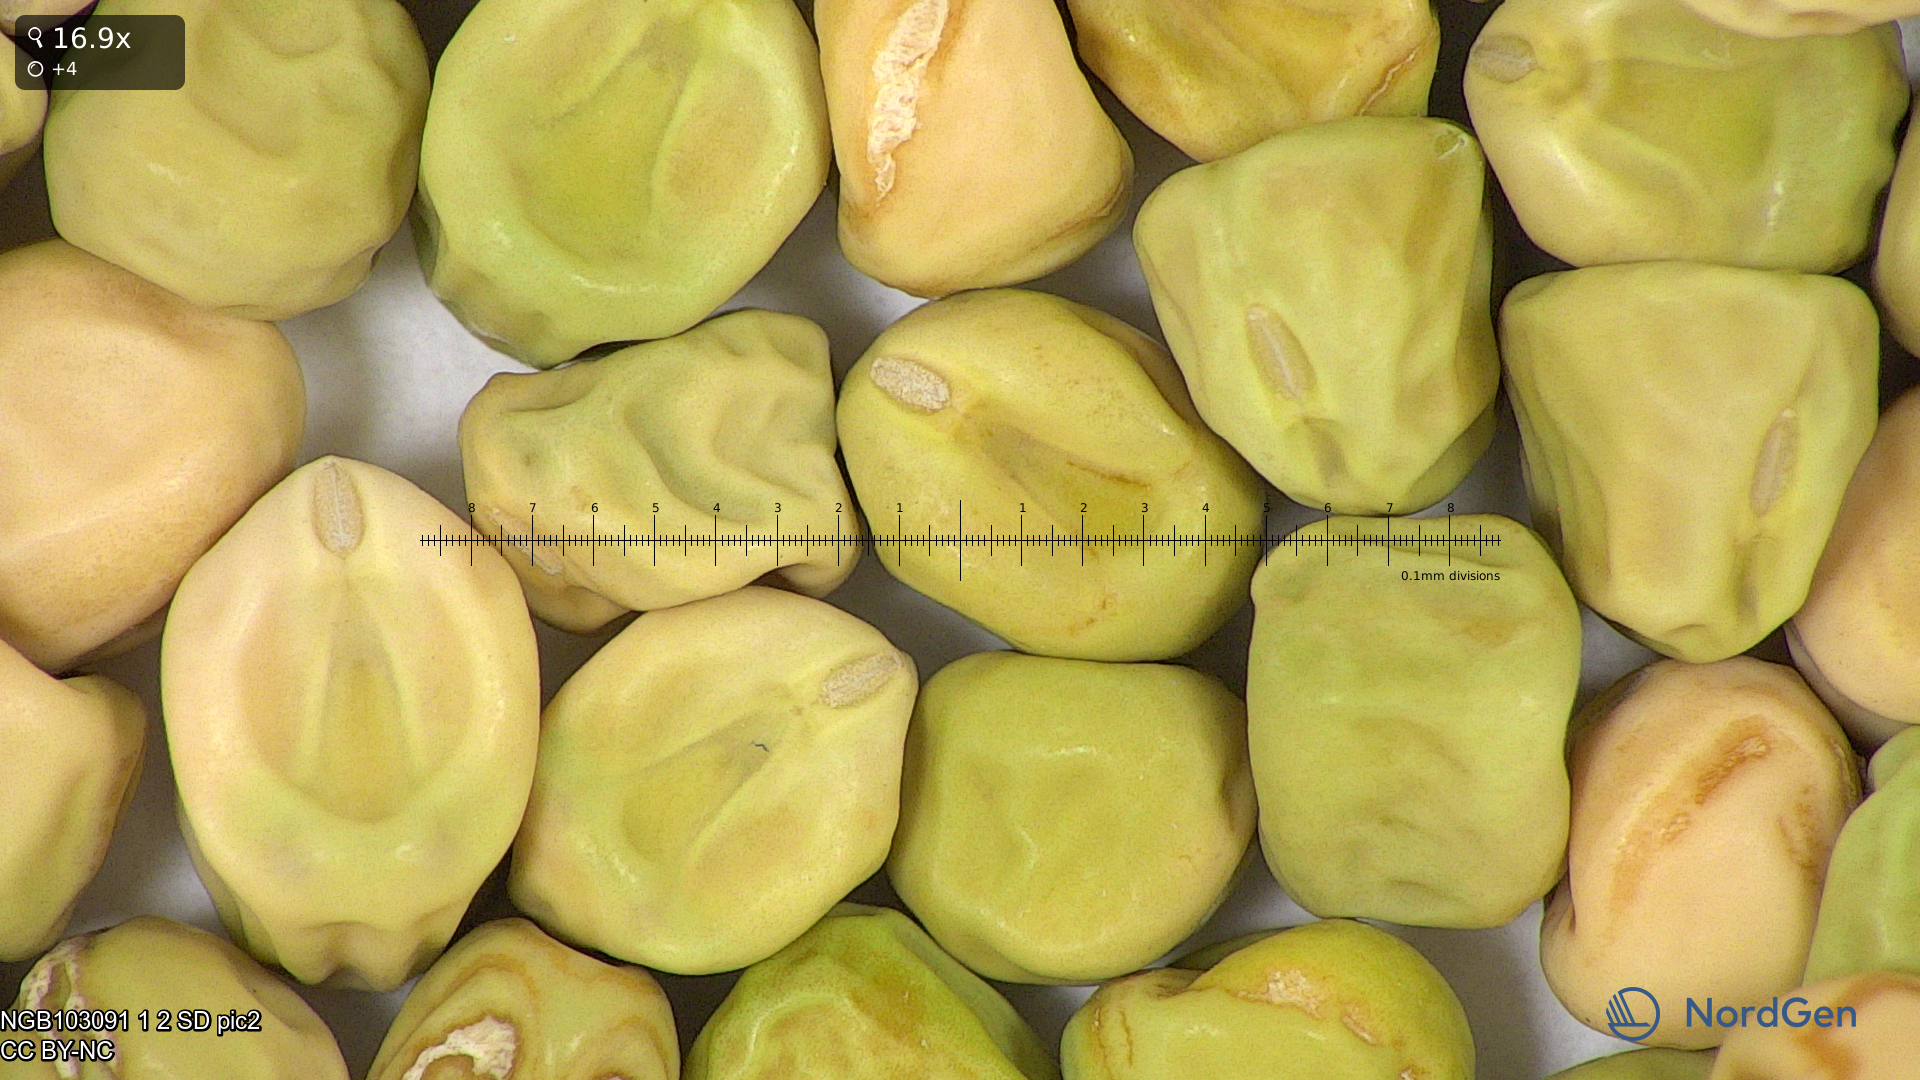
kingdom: Plantae
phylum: Tracheophyta
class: Magnoliopsida
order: Fabales
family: Fabaceae
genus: Lathyrus
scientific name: Lathyrus oleraceus
